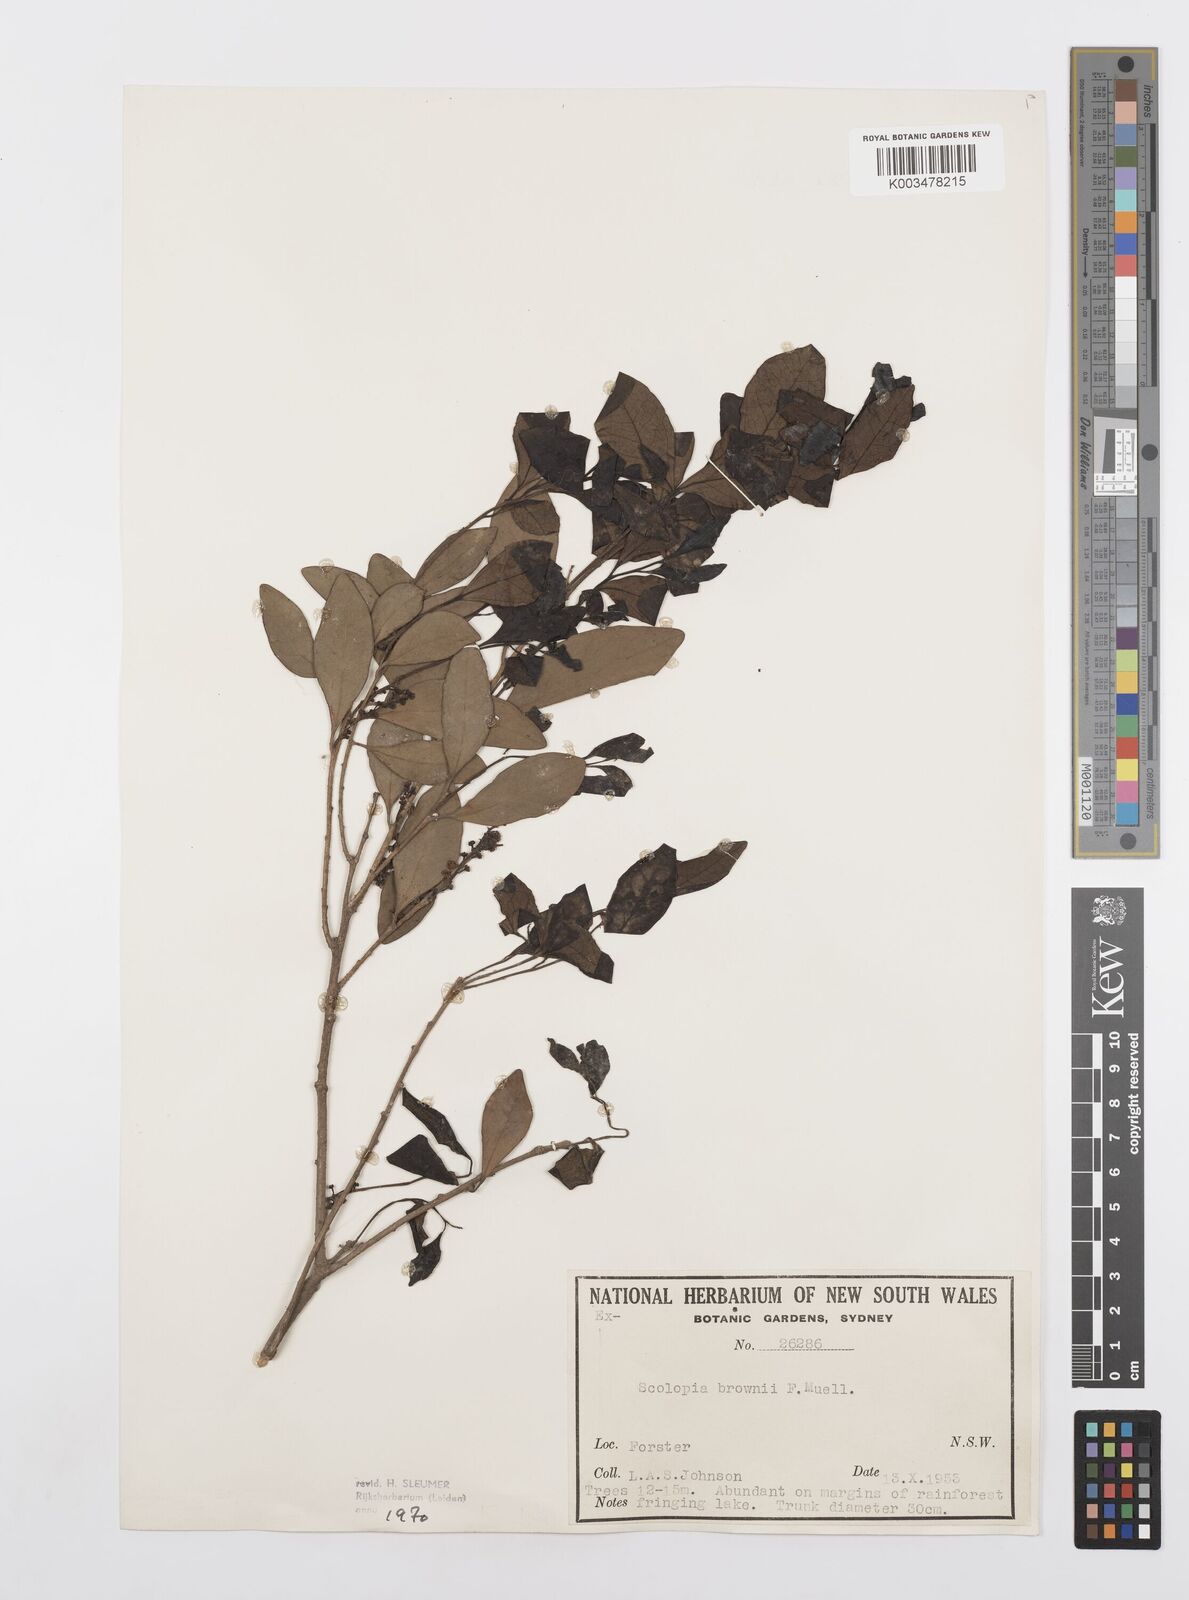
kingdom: Plantae
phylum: Tracheophyta
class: Magnoliopsida
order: Malpighiales
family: Salicaceae
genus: Scolopia
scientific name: Scolopia braunii
